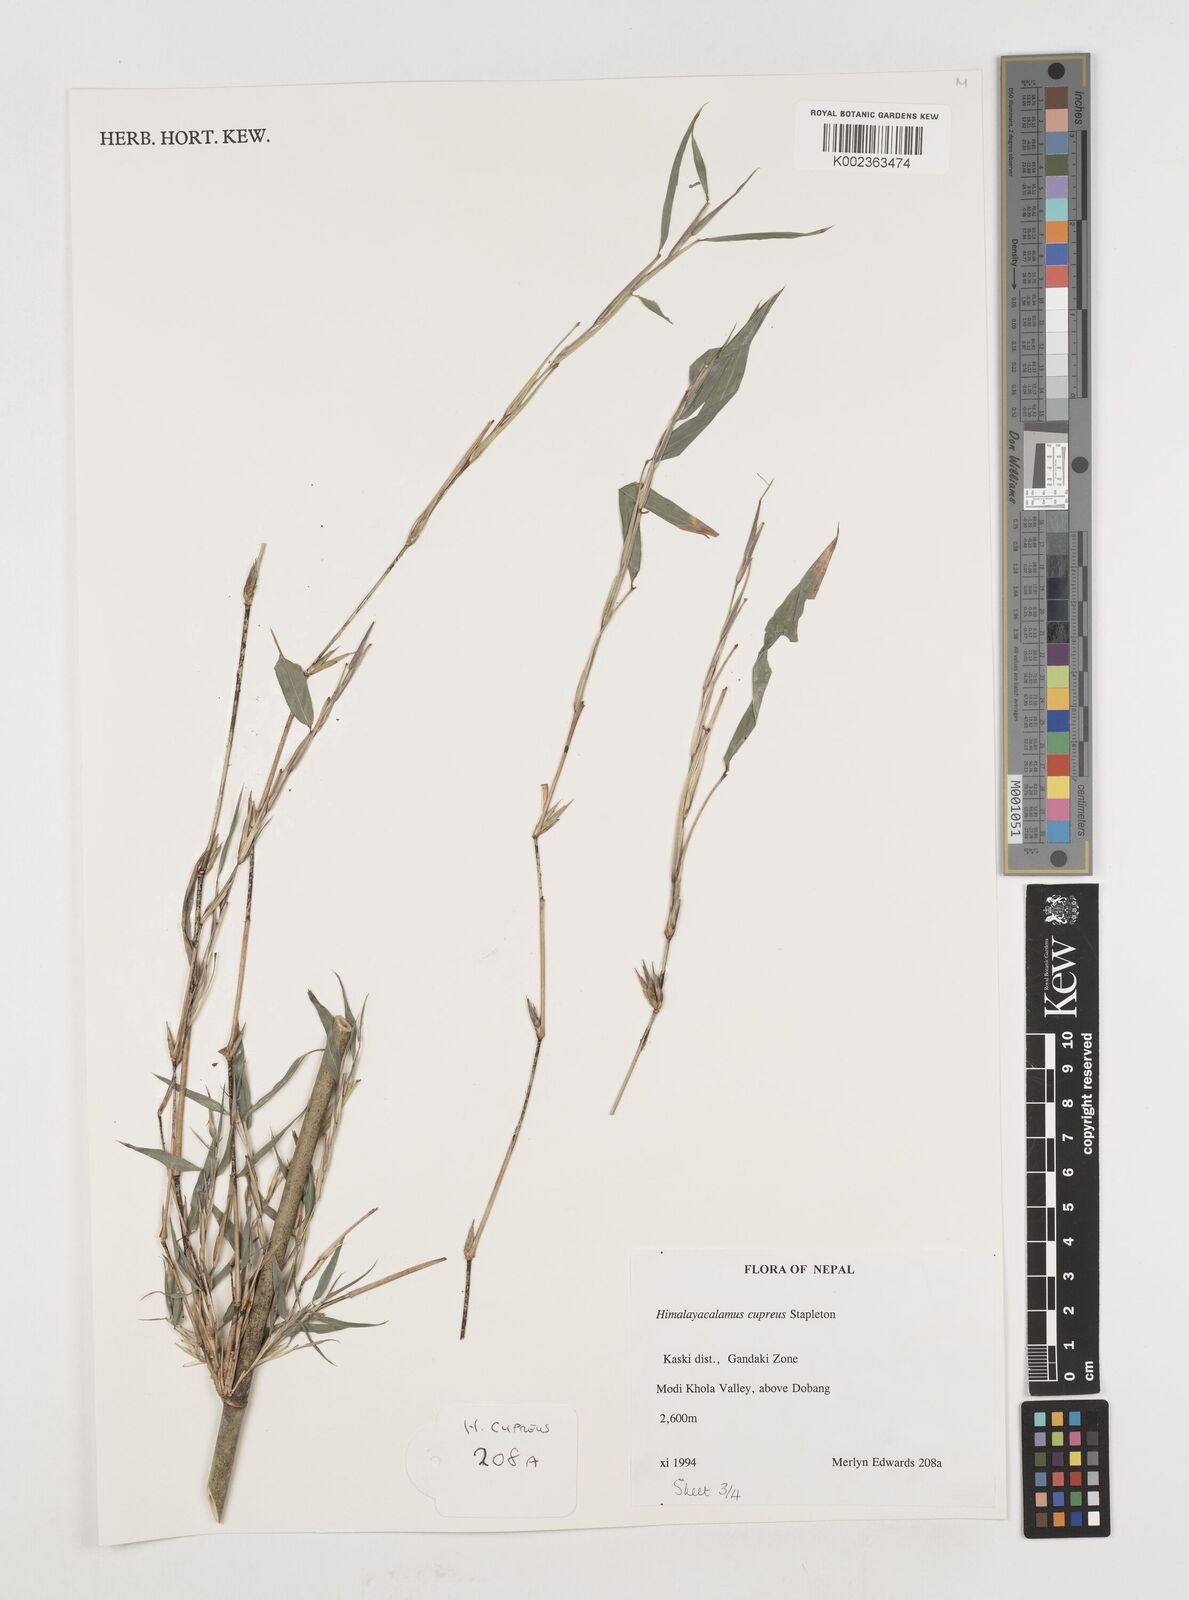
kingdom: Plantae
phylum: Tracheophyta
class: Liliopsida
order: Poales
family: Poaceae
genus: Himalayacalamus
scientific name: Himalayacalamus cupreus
